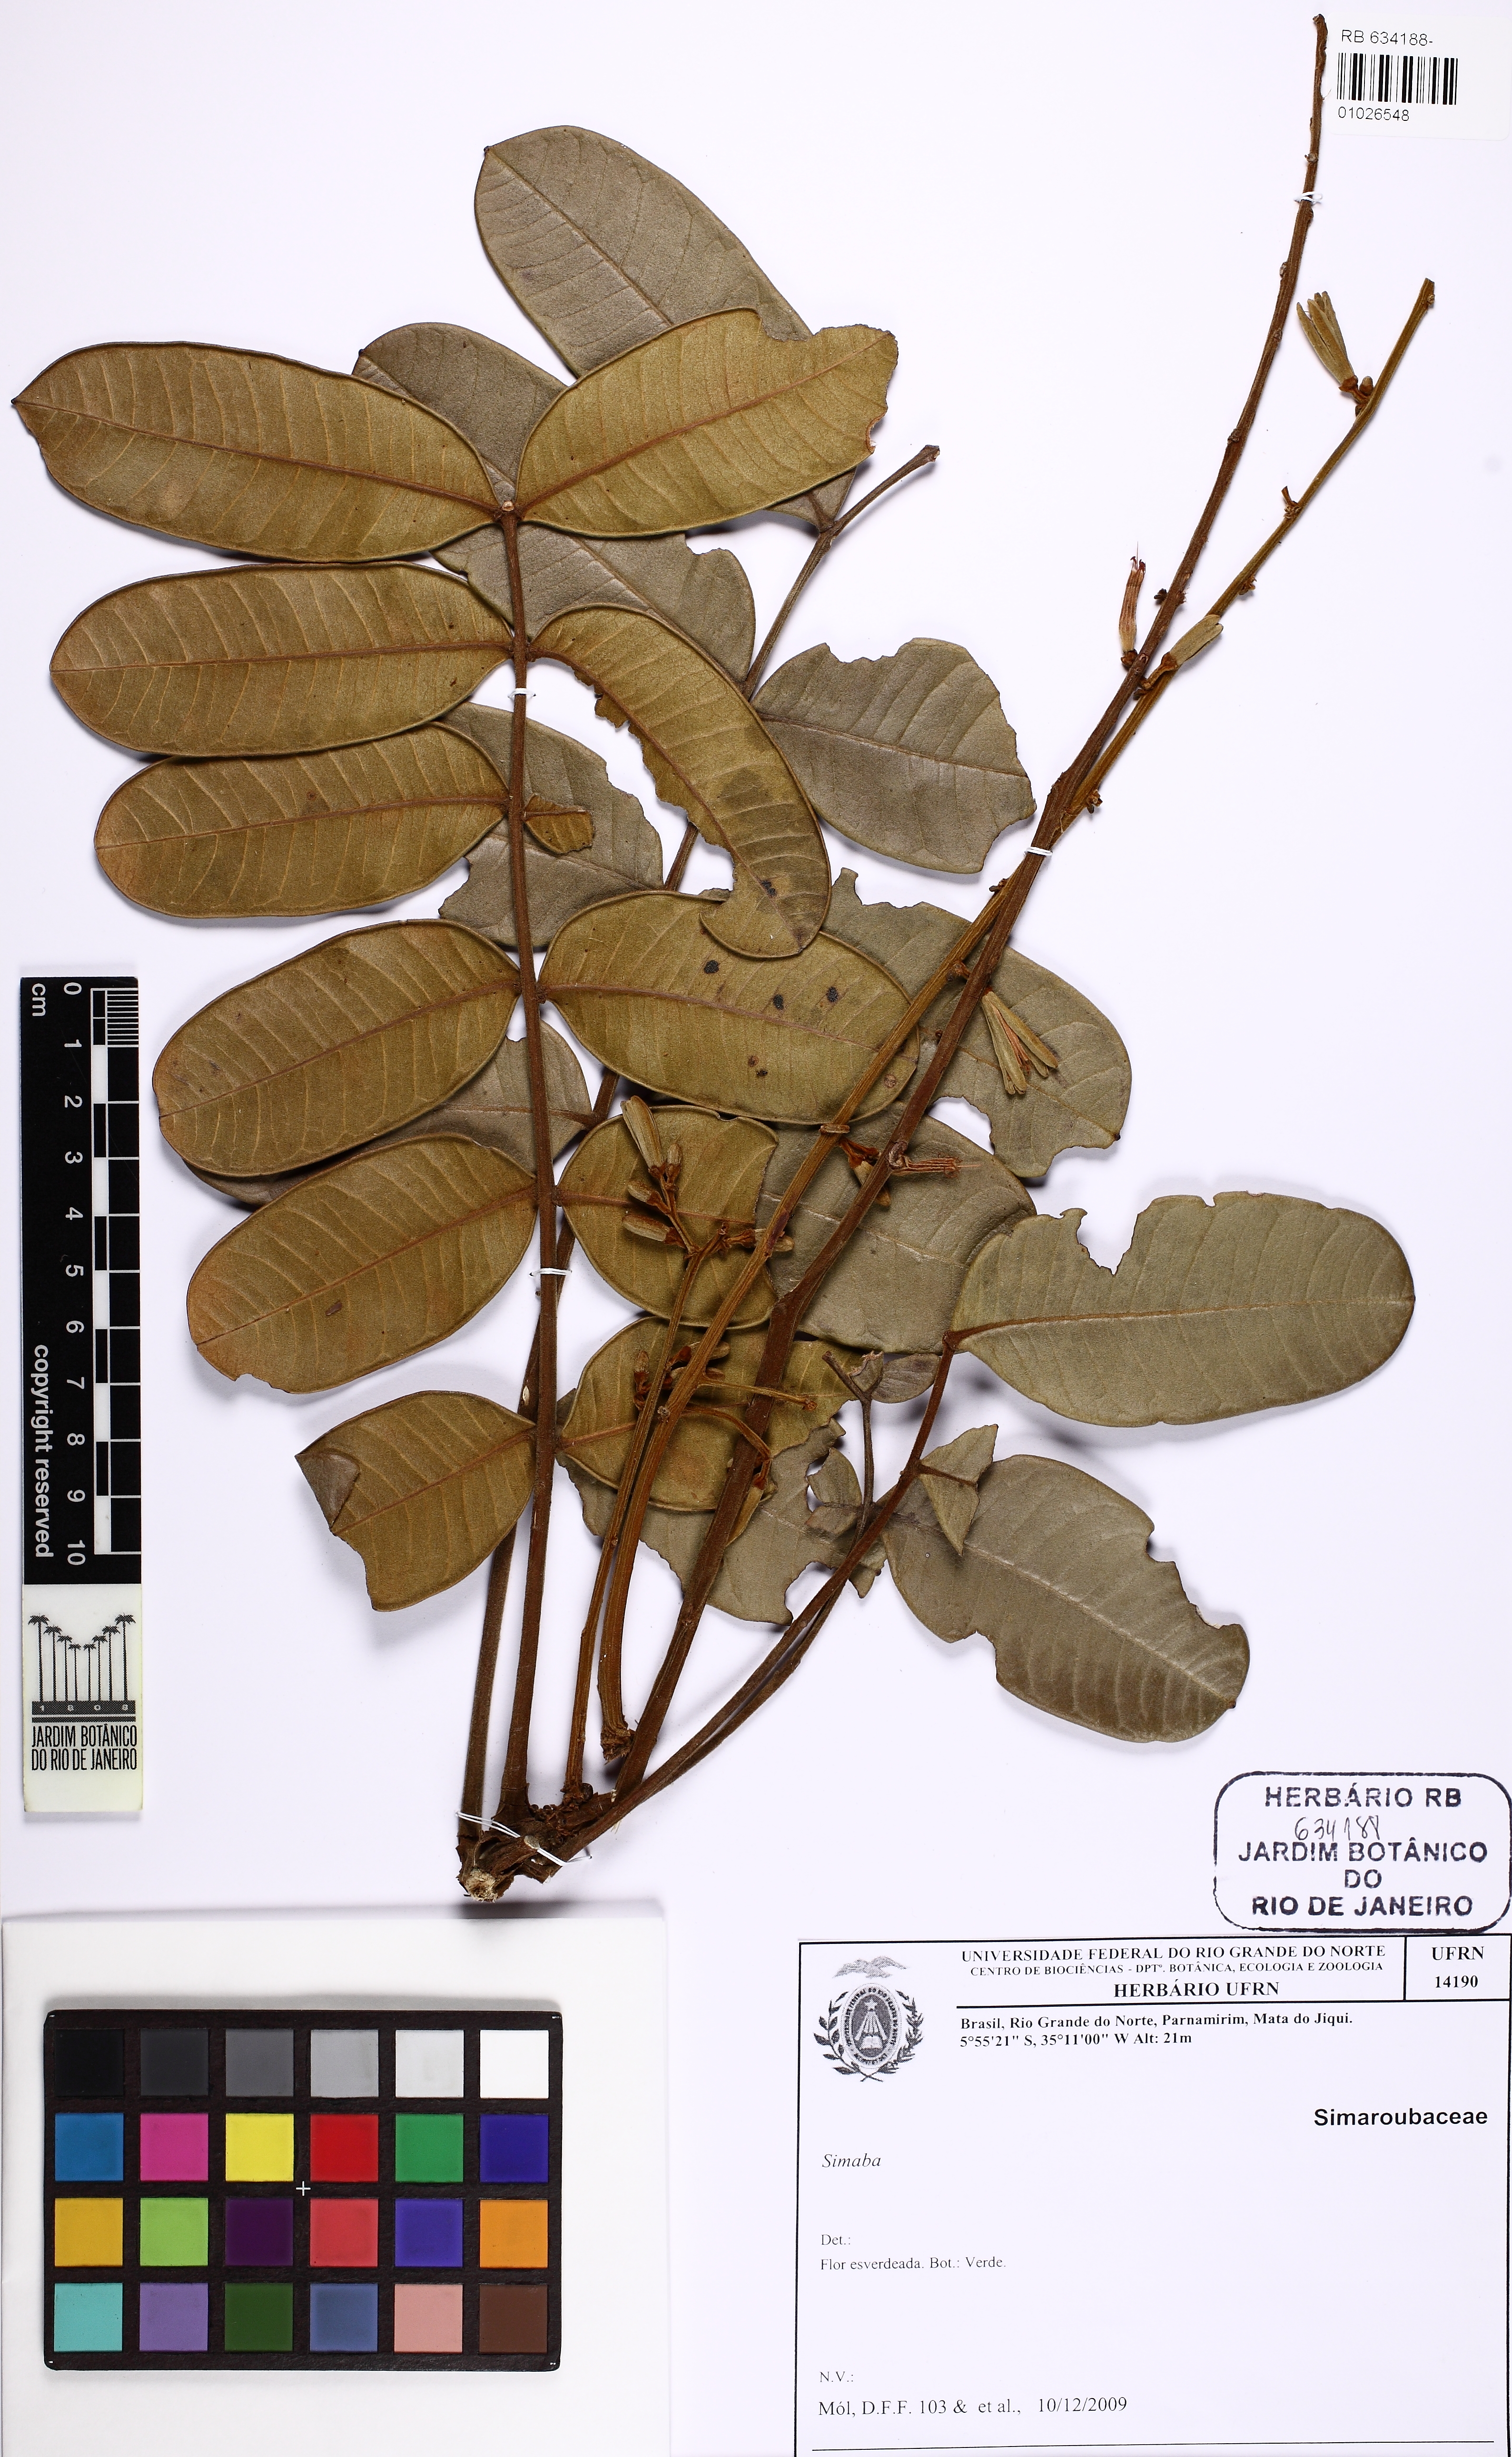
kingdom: Plantae
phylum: Tracheophyta
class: Magnoliopsida
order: Sapindales
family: Simaroubaceae
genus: Homalolepis
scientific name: Homalolepis trichilioides
